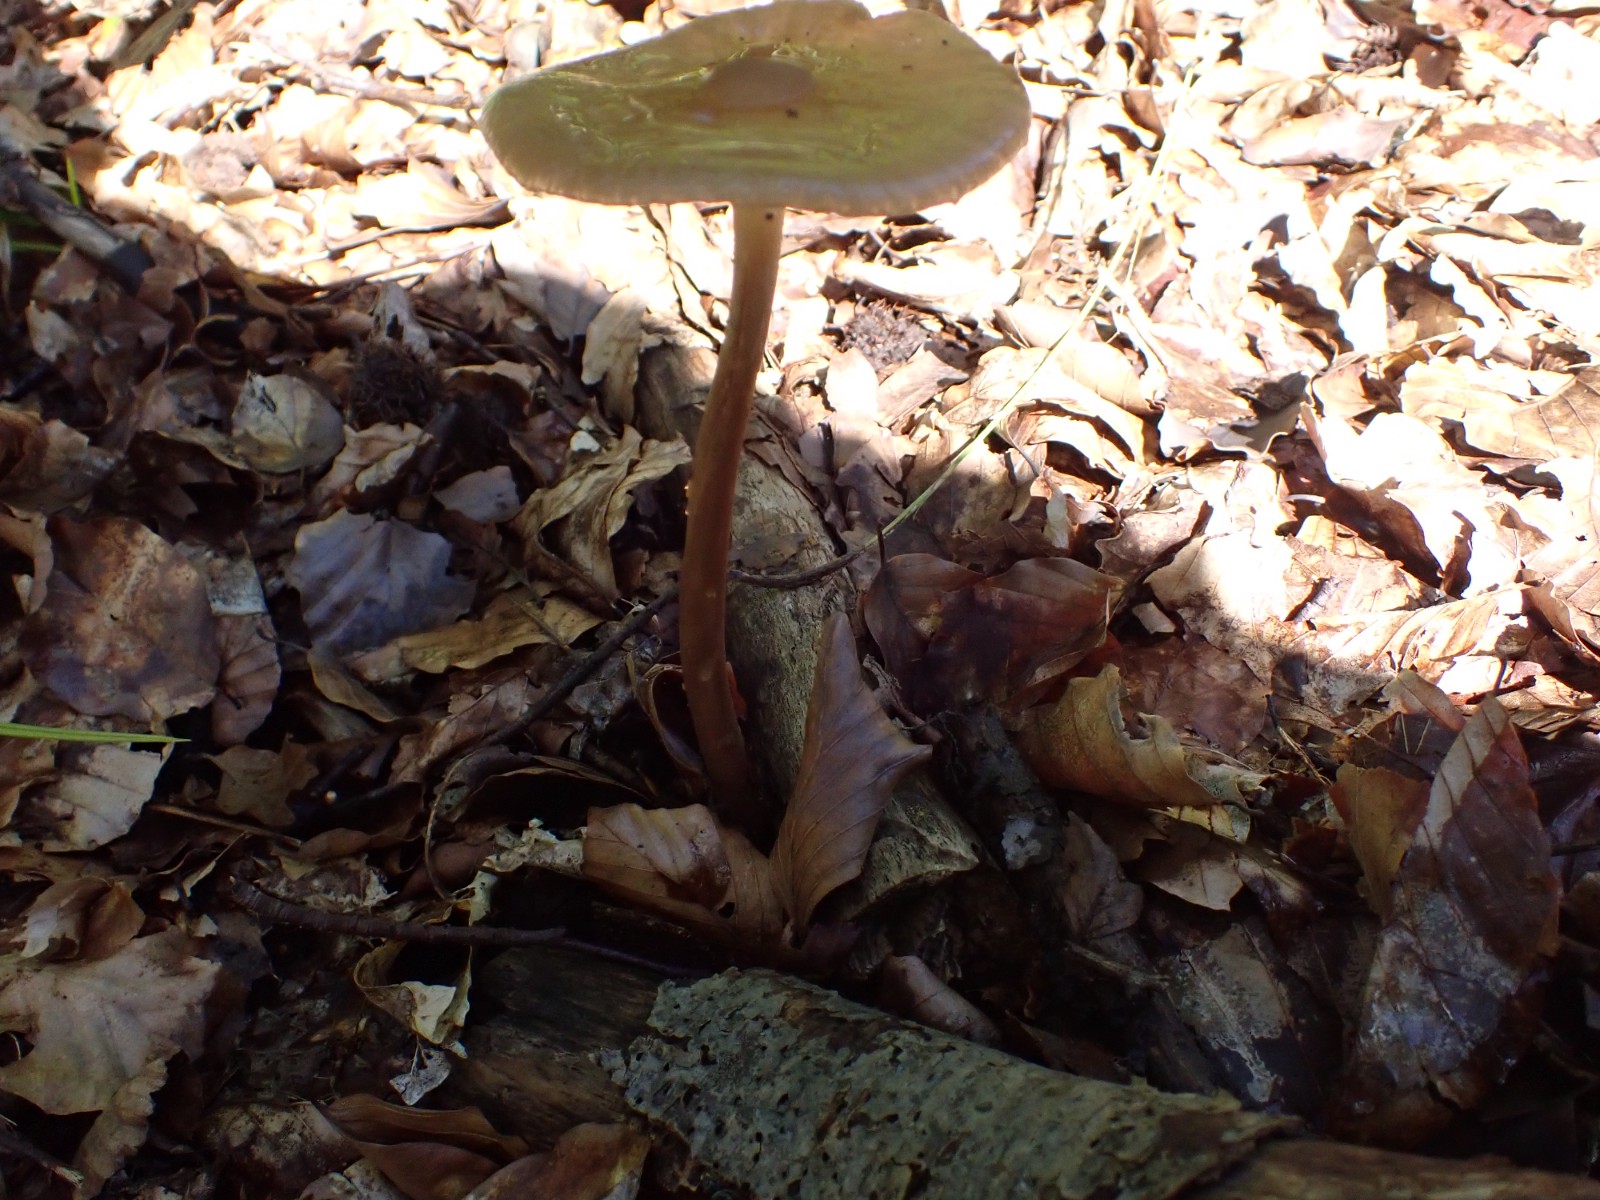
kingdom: Fungi
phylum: Basidiomycota
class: Agaricomycetes
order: Agaricales
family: Physalacriaceae
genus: Hymenopellis
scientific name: Hymenopellis radicata
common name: almindelig pælerodshat
